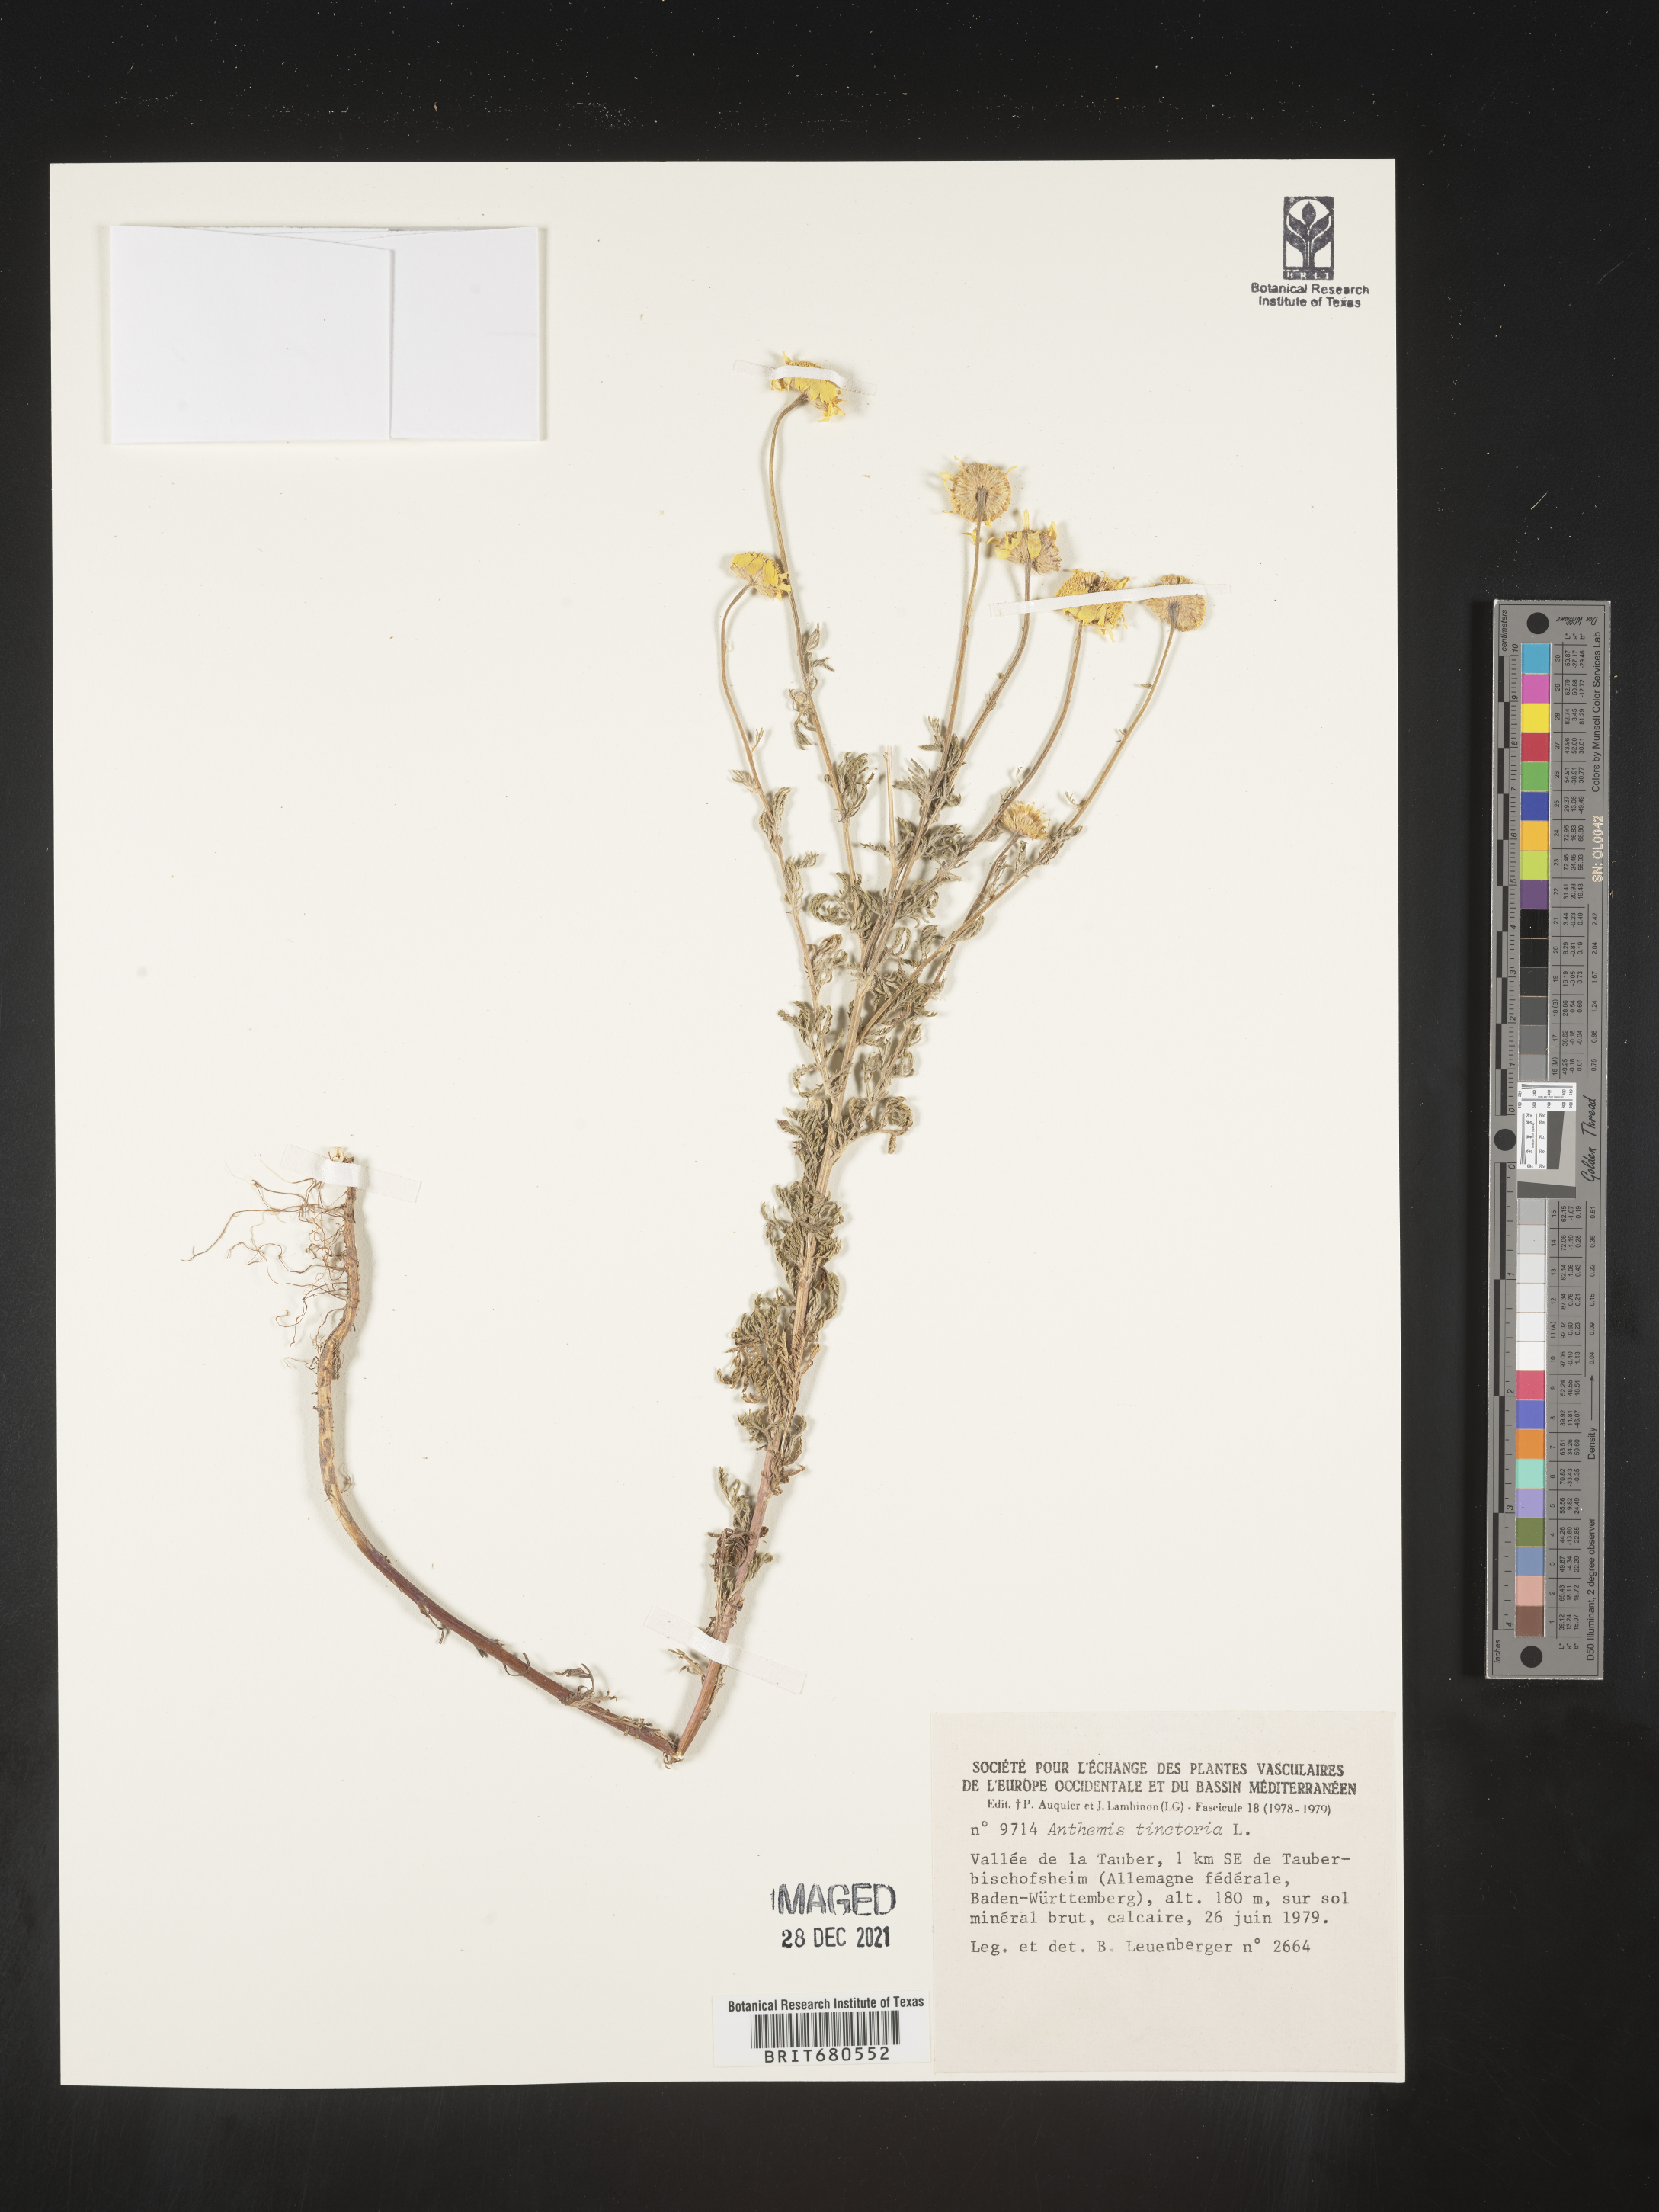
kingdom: Plantae
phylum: Tracheophyta
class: Magnoliopsida
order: Asterales
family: Asteraceae
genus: Anthemis
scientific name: Anthemis
